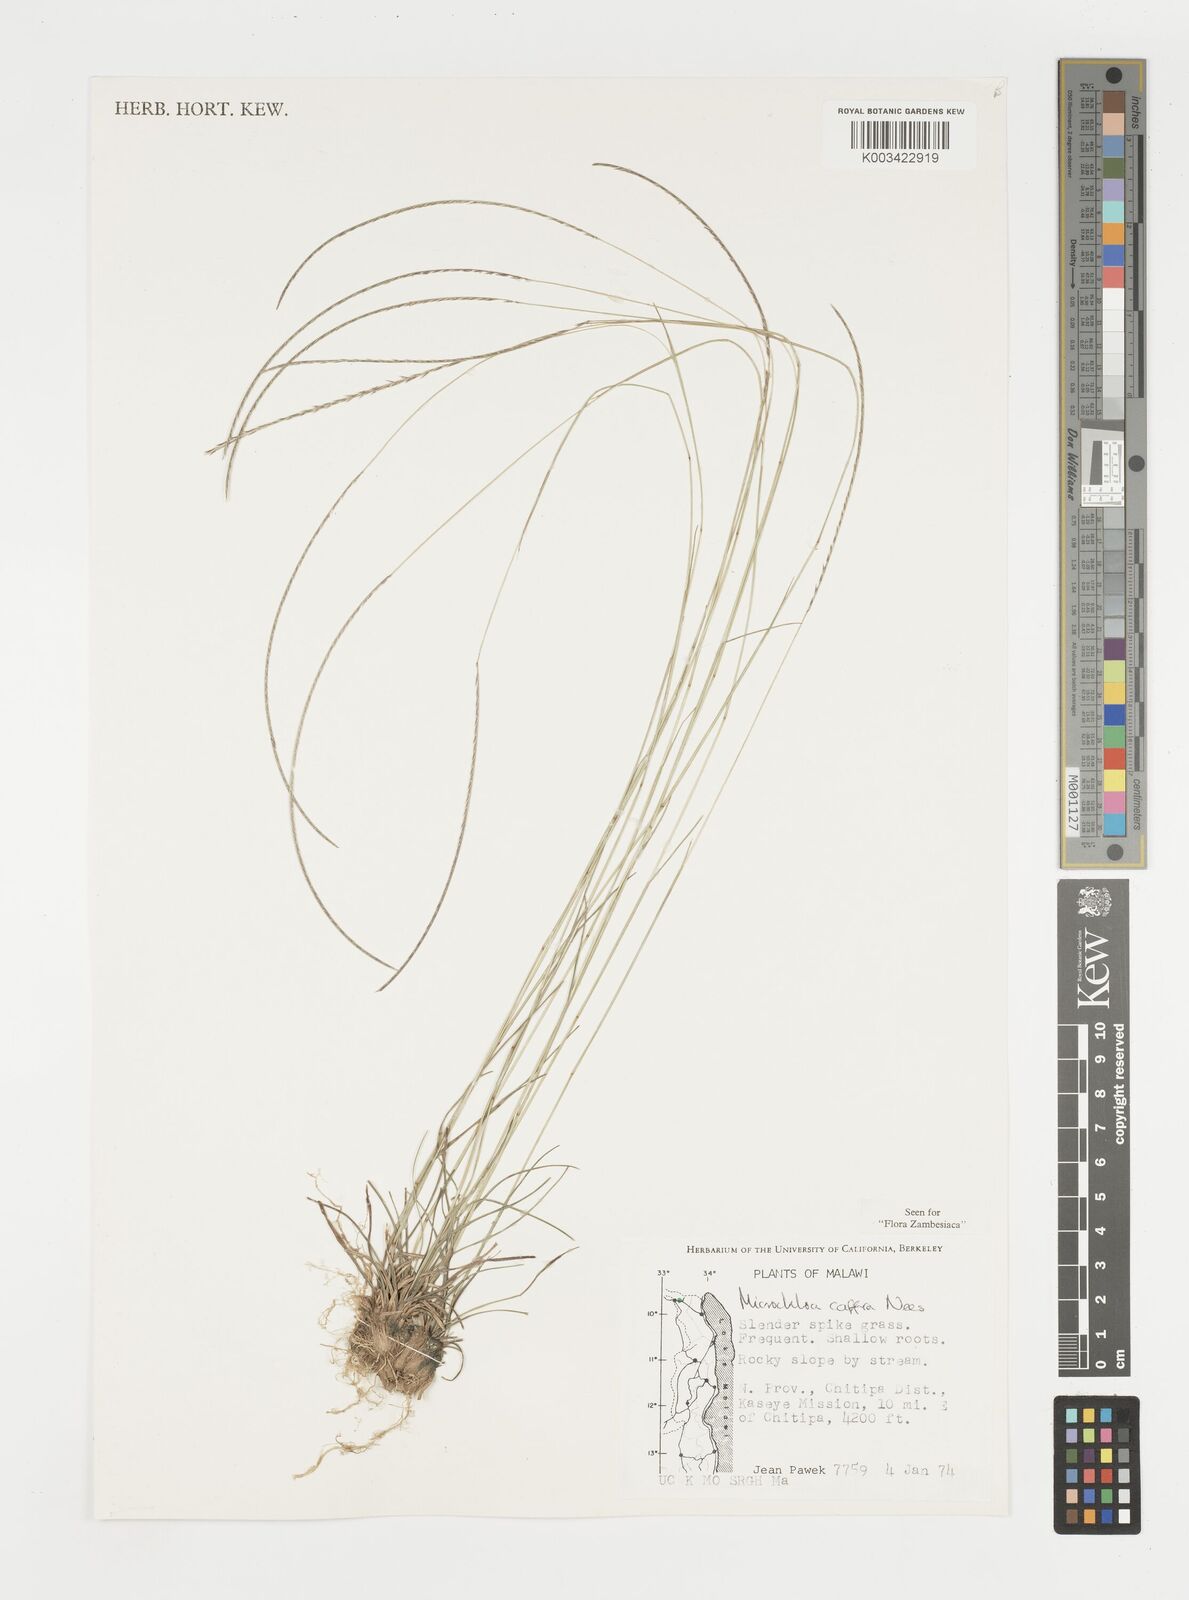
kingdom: Plantae
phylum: Tracheophyta
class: Liliopsida
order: Poales
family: Poaceae
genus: Microchloa
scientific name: Microchloa caffra
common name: Pincushion grass
